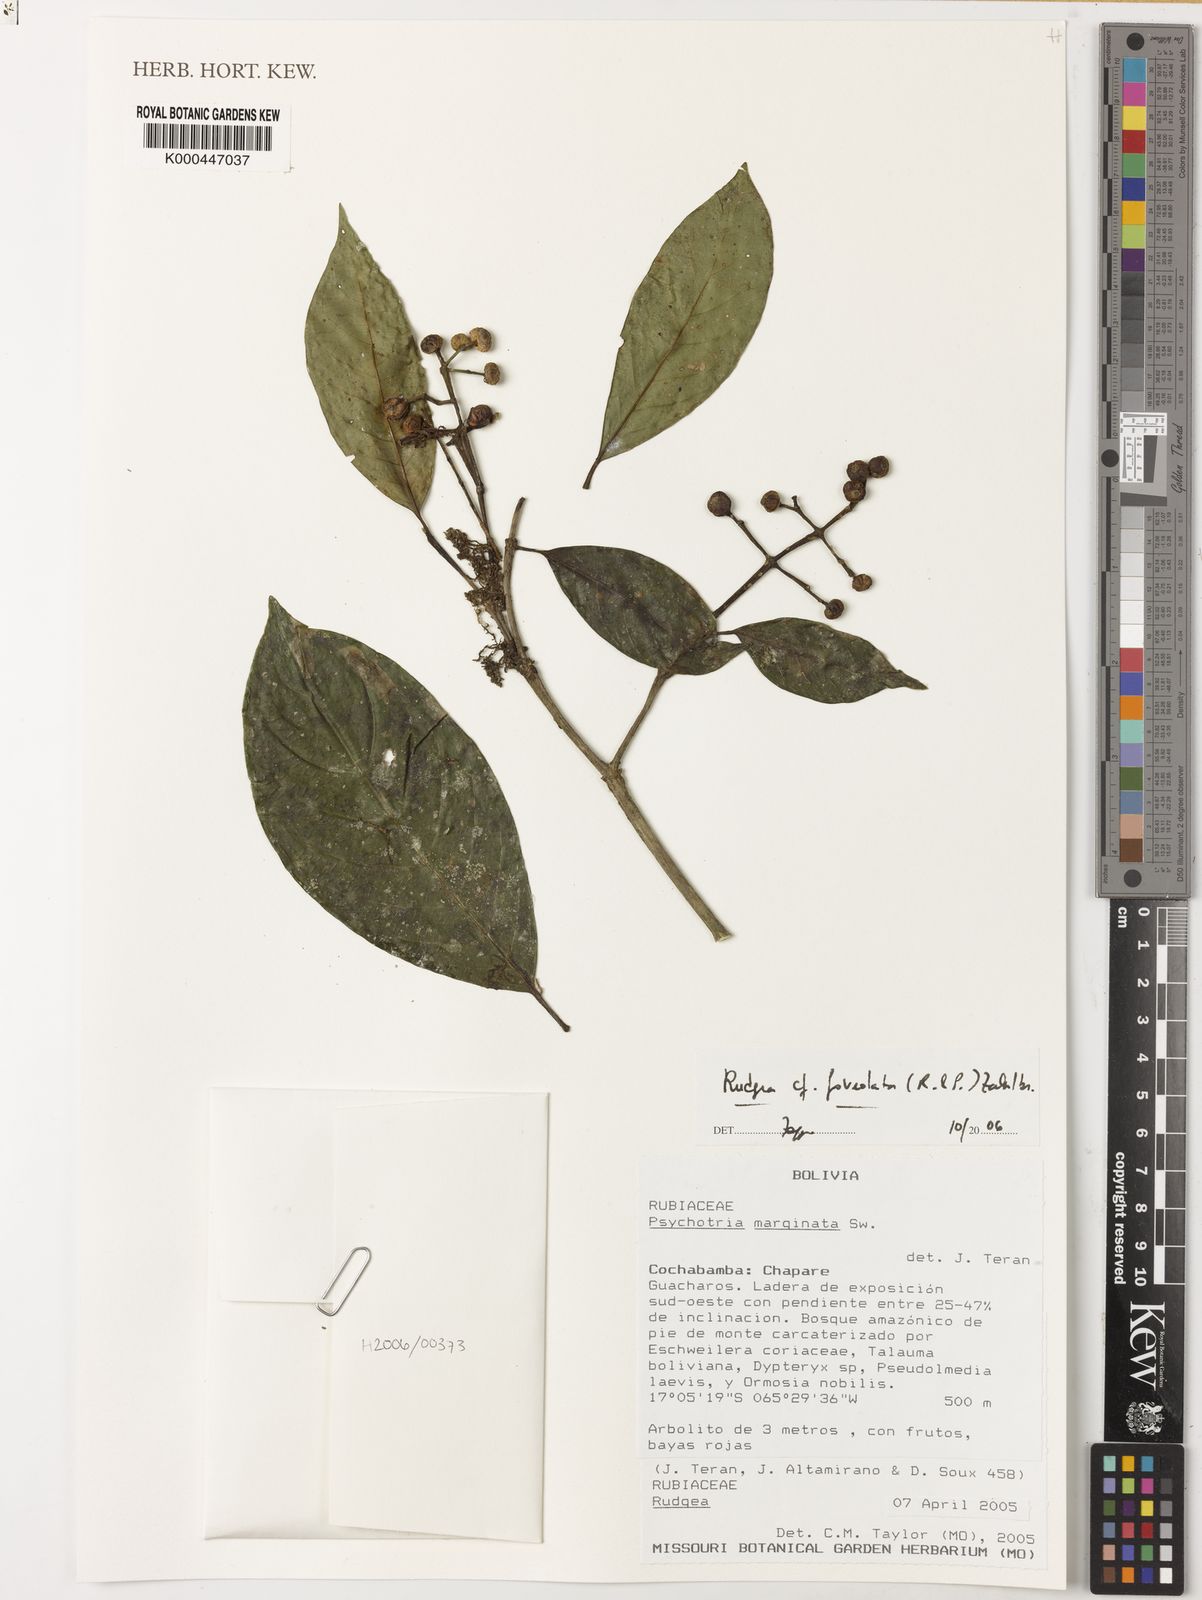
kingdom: Plantae
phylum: Tracheophyta
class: Magnoliopsida
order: Gentianales
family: Rubiaceae
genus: Rudgea
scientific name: Rudgea foveolata
